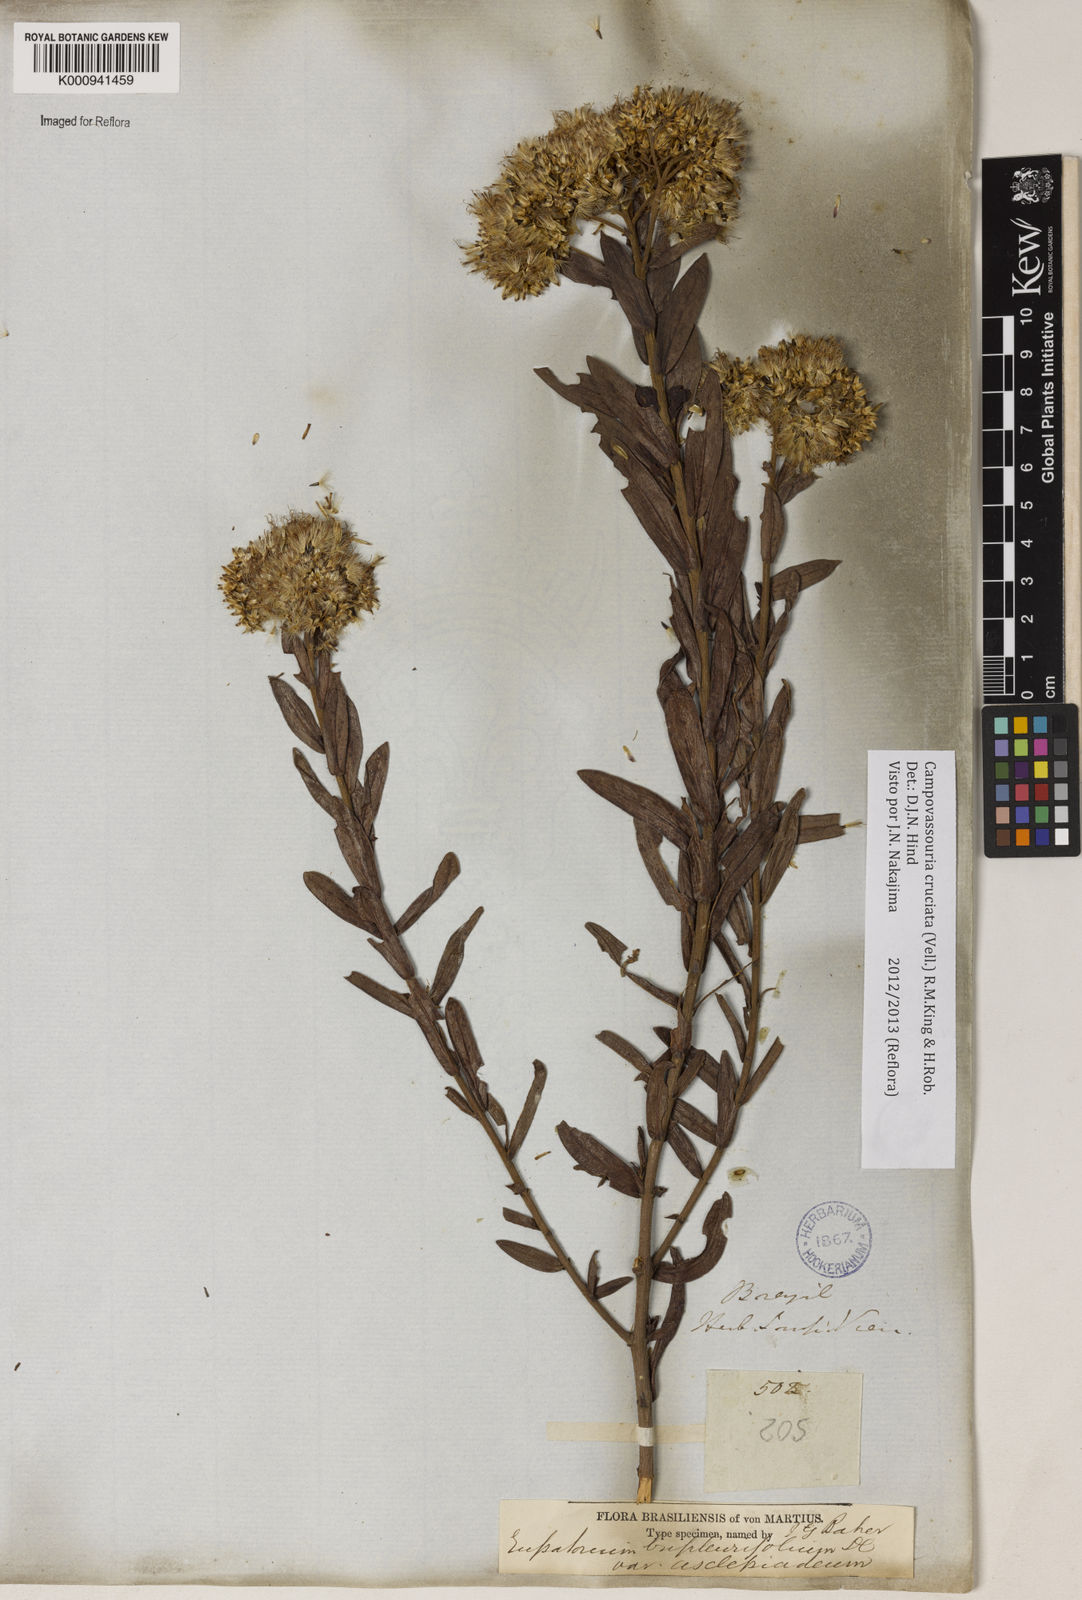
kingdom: Plantae
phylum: Tracheophyta
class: Magnoliopsida
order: Asterales
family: Asteraceae
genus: Campovassouria
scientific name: Campovassouria cruciata
